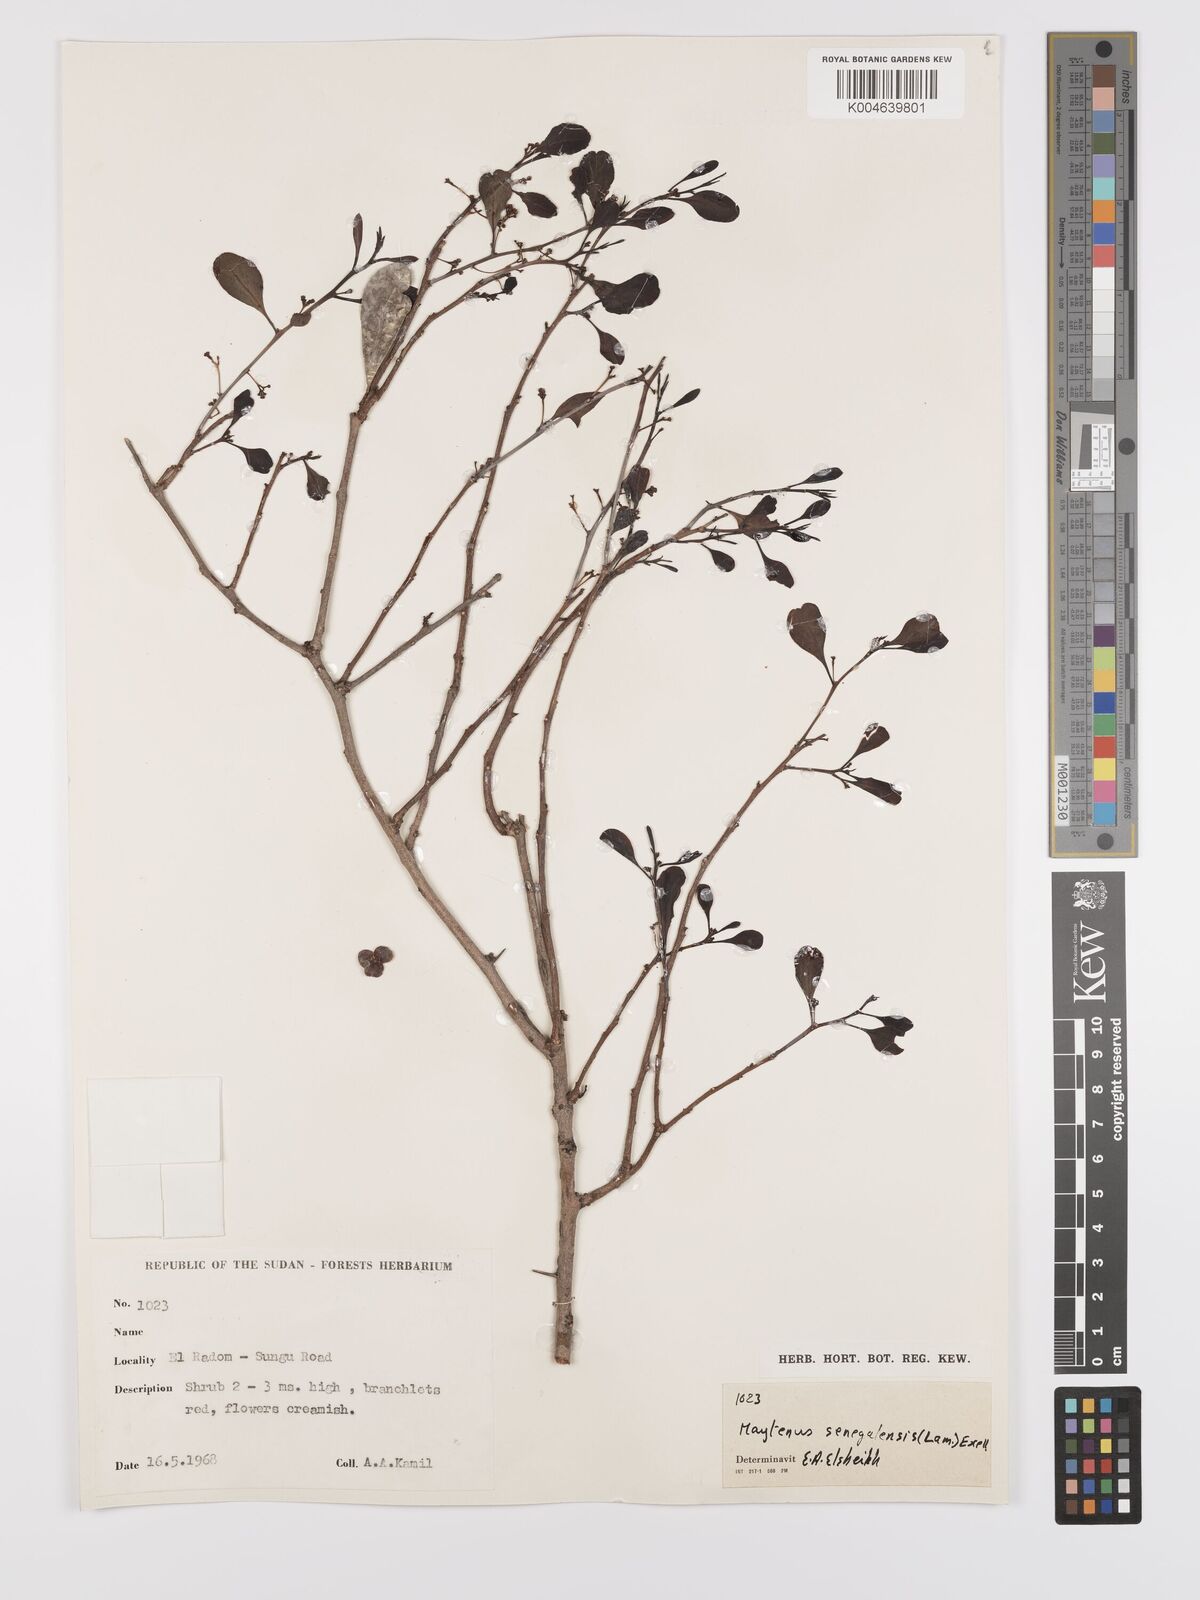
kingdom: Plantae
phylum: Tracheophyta
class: Magnoliopsida
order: Celastrales
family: Celastraceae
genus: Gymnosporia
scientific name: Gymnosporia senegalensis
